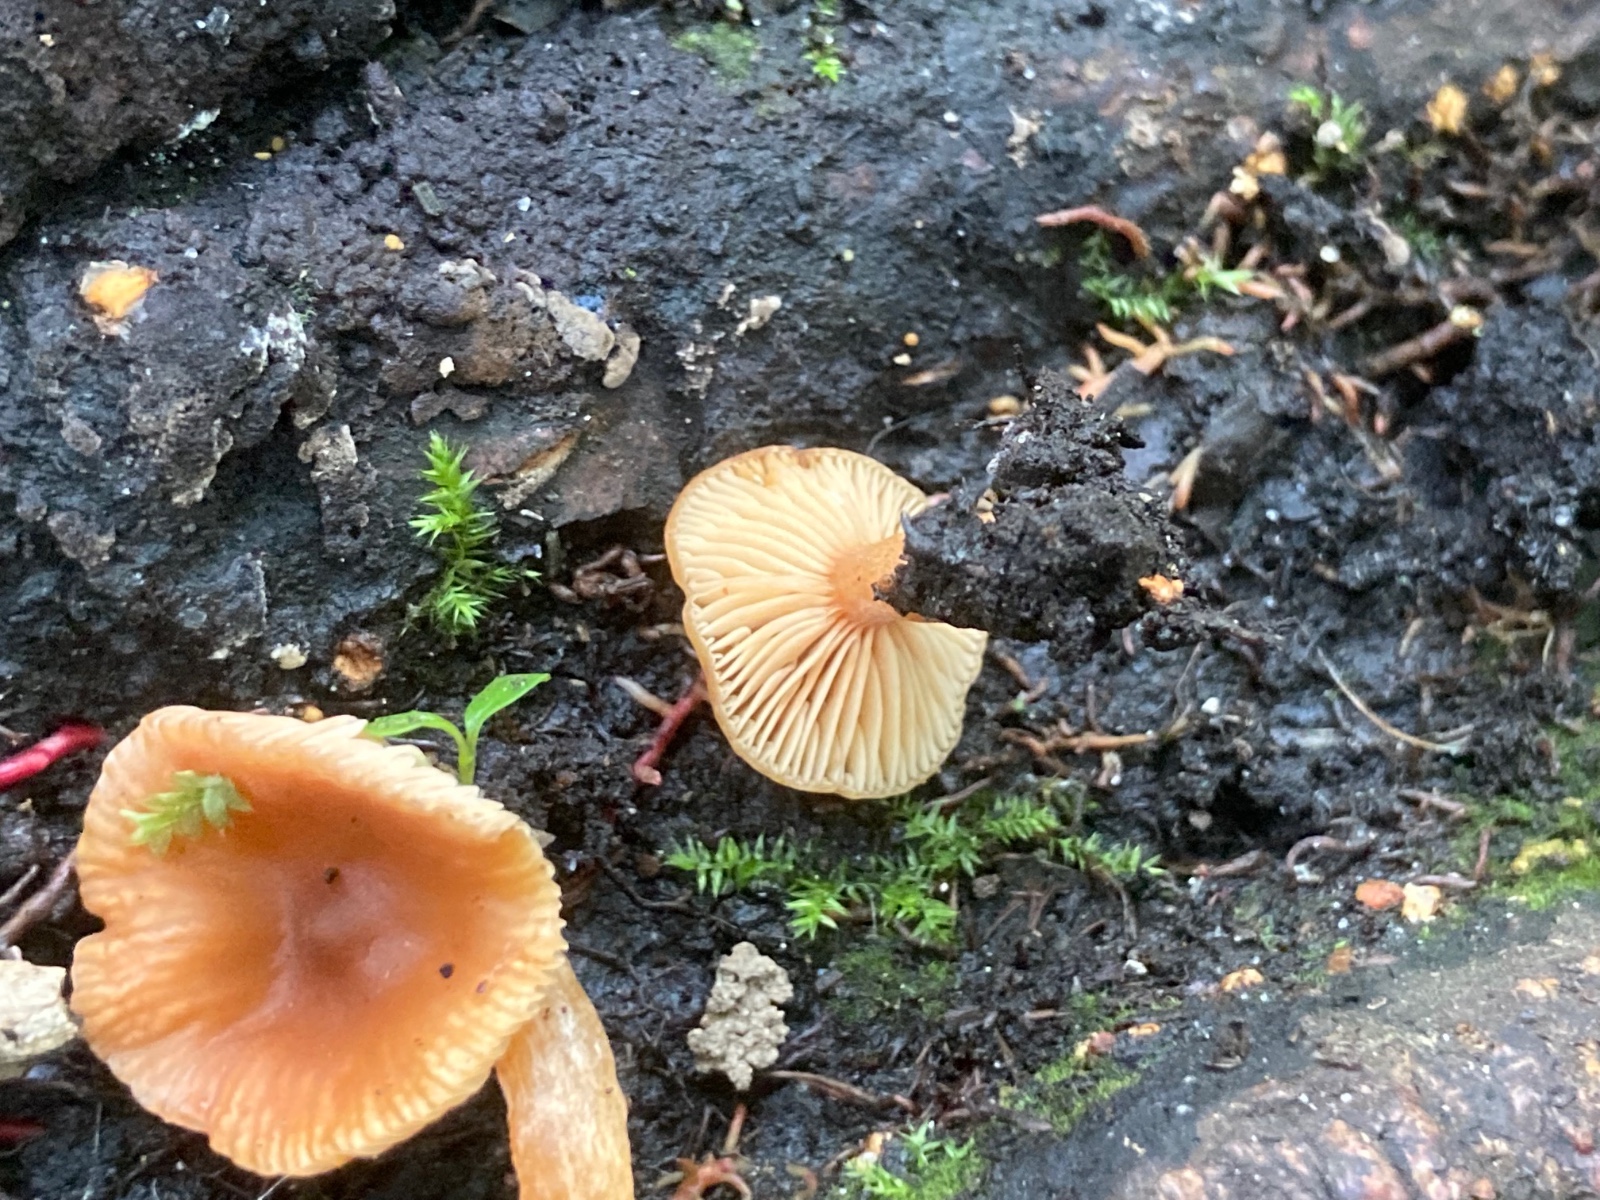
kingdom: Fungi
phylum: Basidiomycota
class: Agaricomycetes
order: Russulales
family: Russulaceae
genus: Lactarius
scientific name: Lactarius obscuratus
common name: elle-mælkehat
